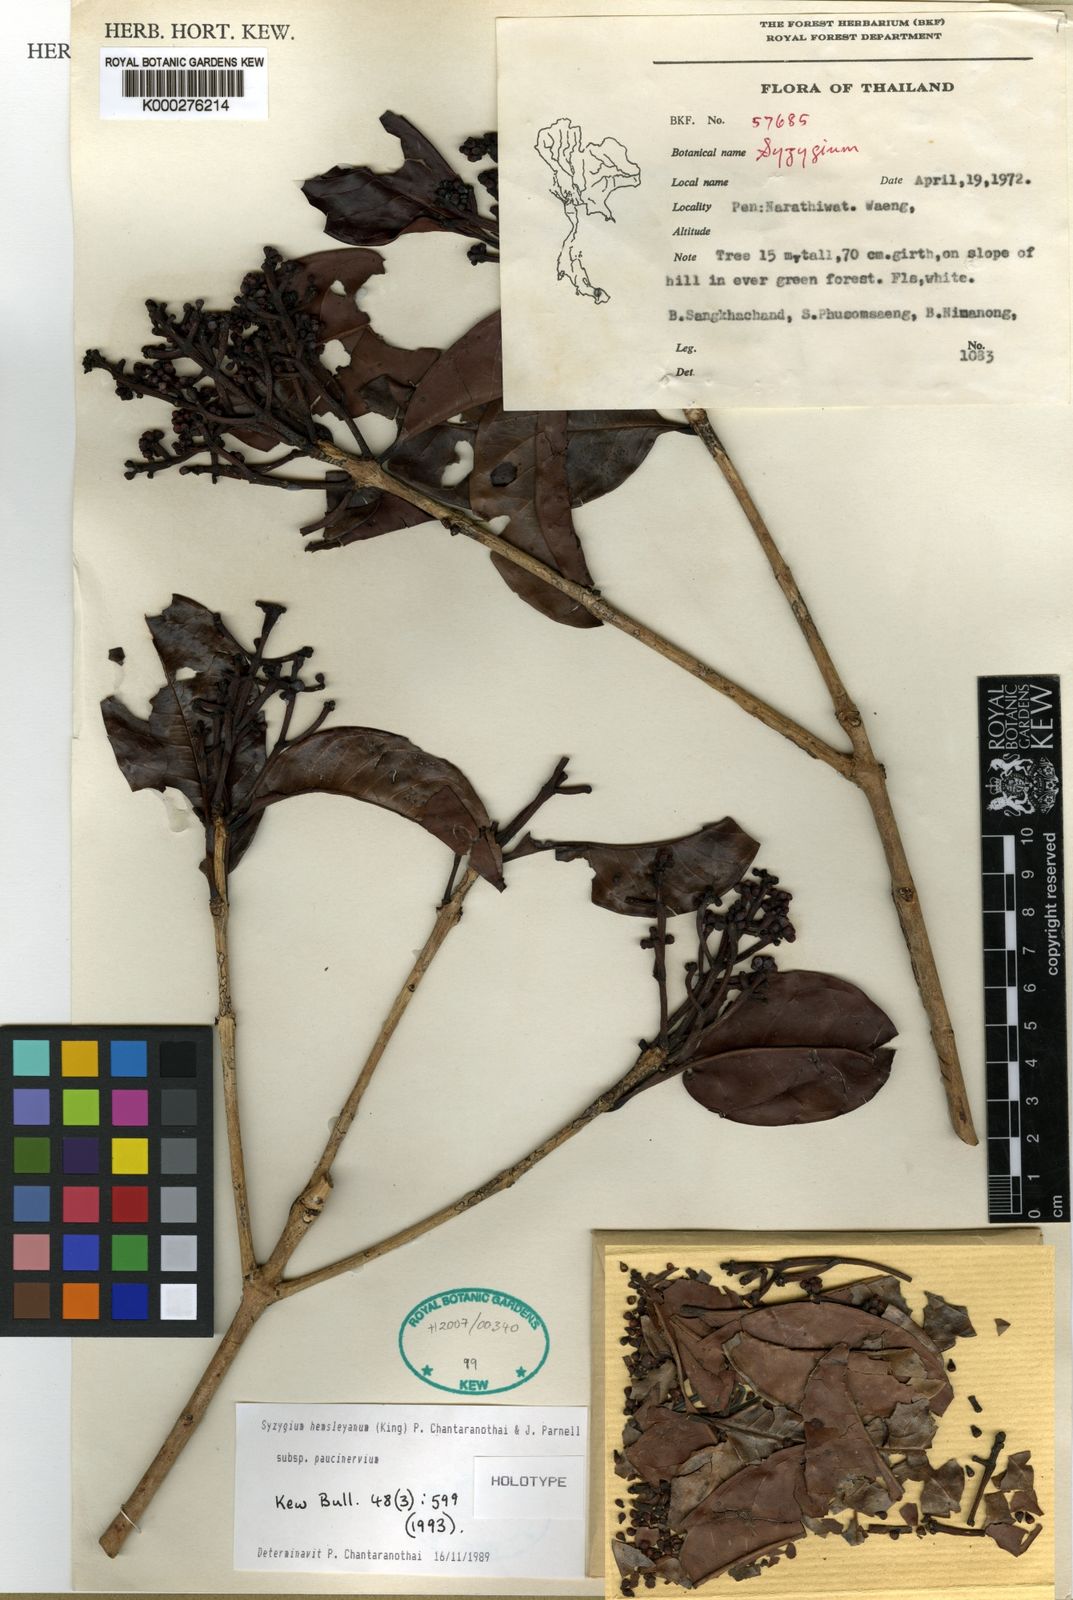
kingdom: Plantae
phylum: Tracheophyta
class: Magnoliopsida
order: Myrtales
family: Myrtaceae
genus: Syzygium
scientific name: Syzygium hemsleyanum
